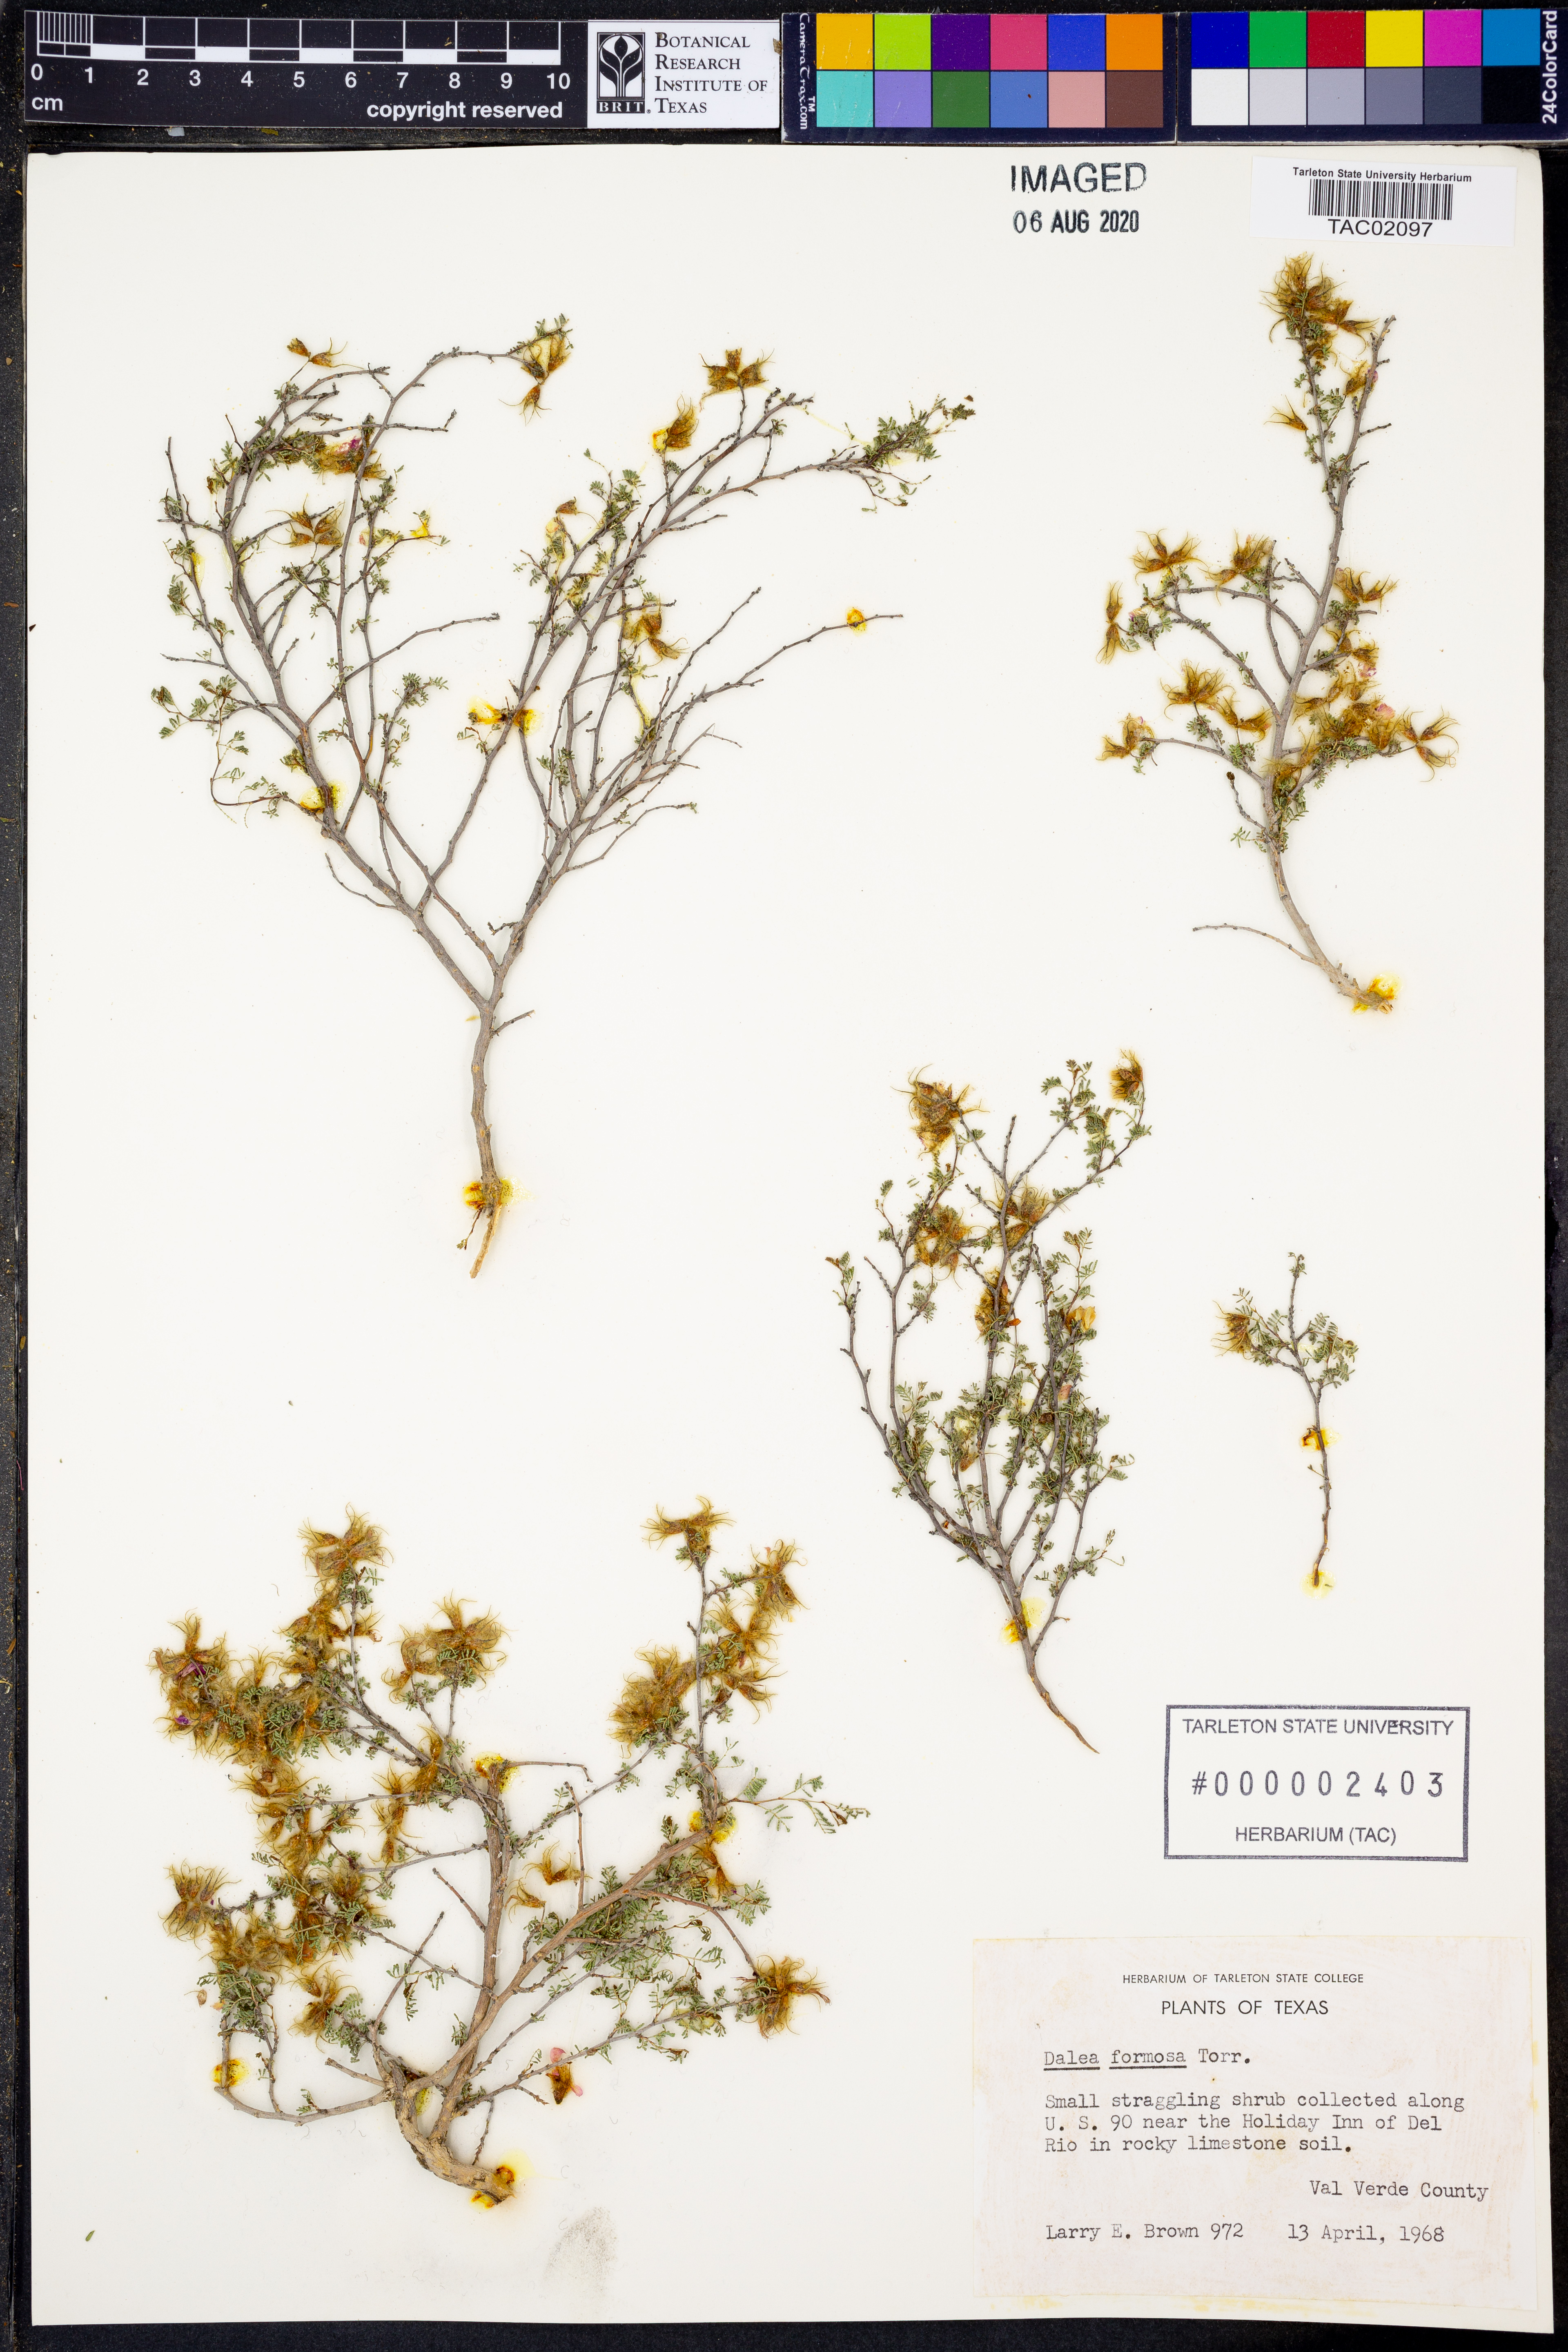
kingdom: Plantae
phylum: Tracheophyta
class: Magnoliopsida
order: Fabales
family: Fabaceae
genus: Dalea
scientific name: Dalea formosa
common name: Feather-plume dalea
